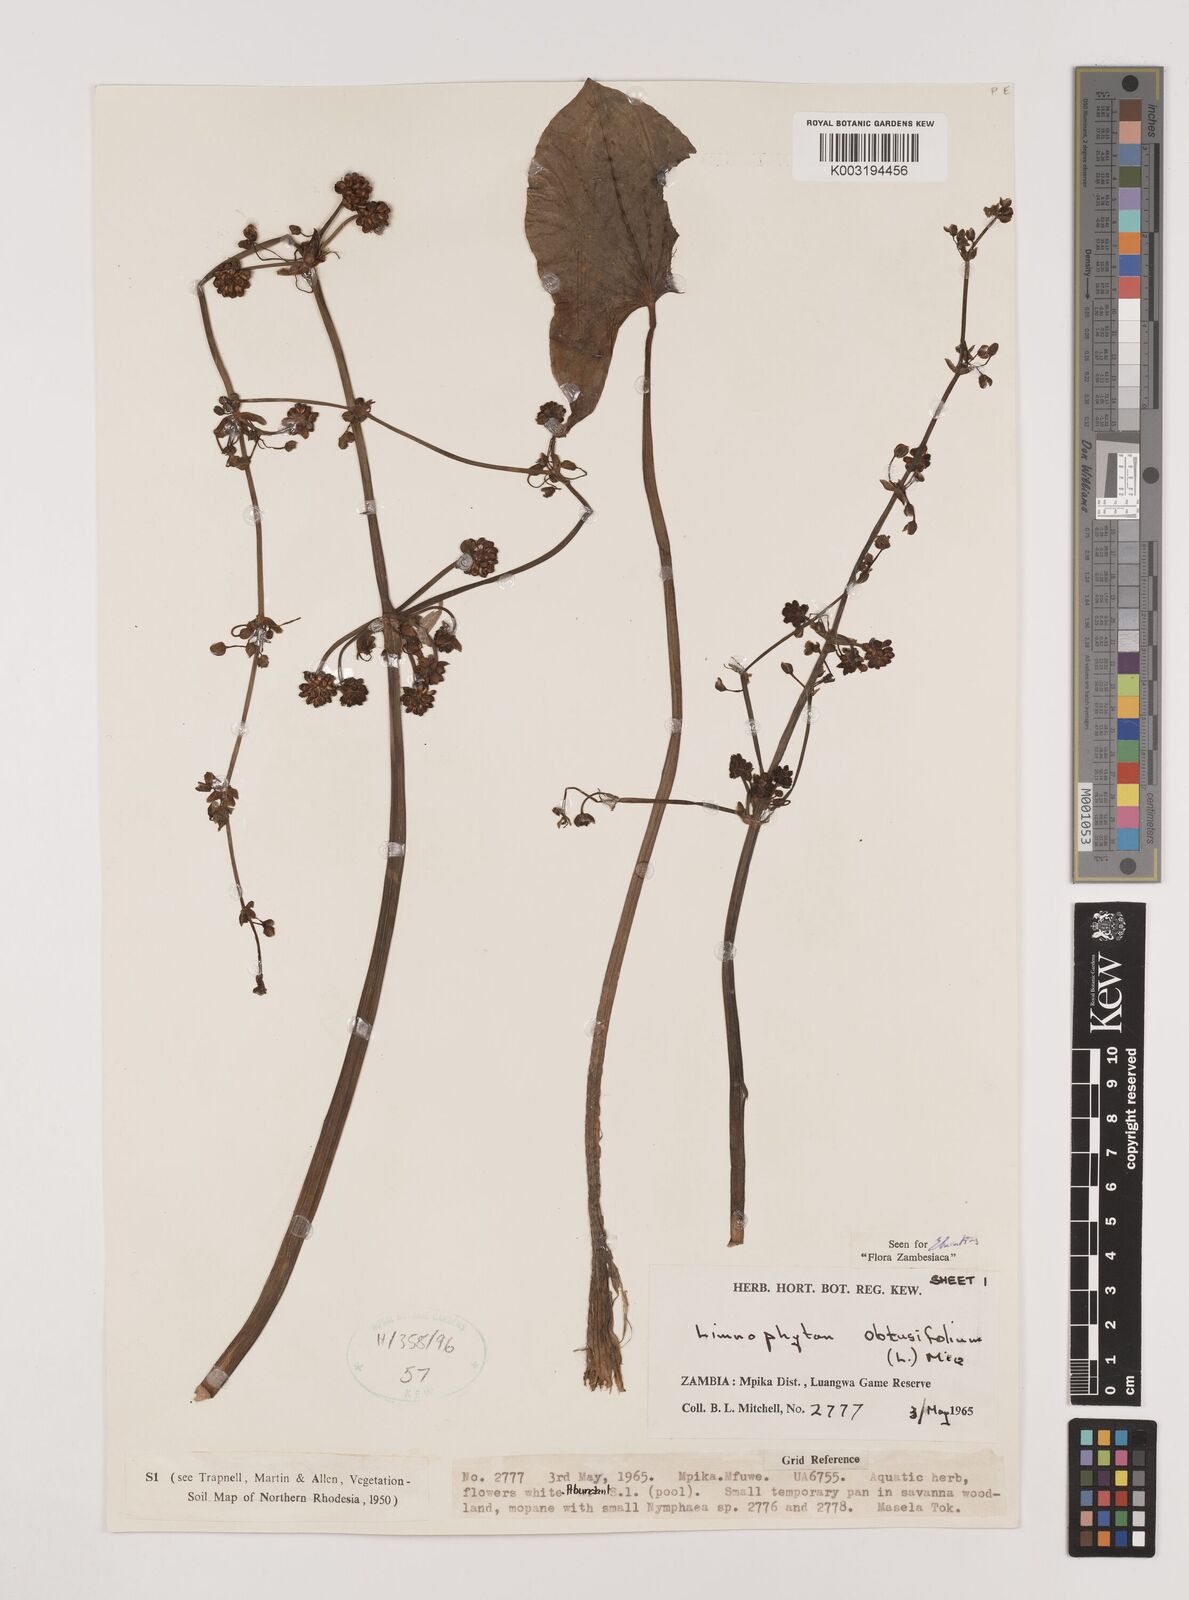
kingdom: Plantae
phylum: Tracheophyta
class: Liliopsida
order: Alismatales
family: Alismataceae
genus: Limnophyton
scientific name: Limnophyton obtusifolium
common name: Arrow head
